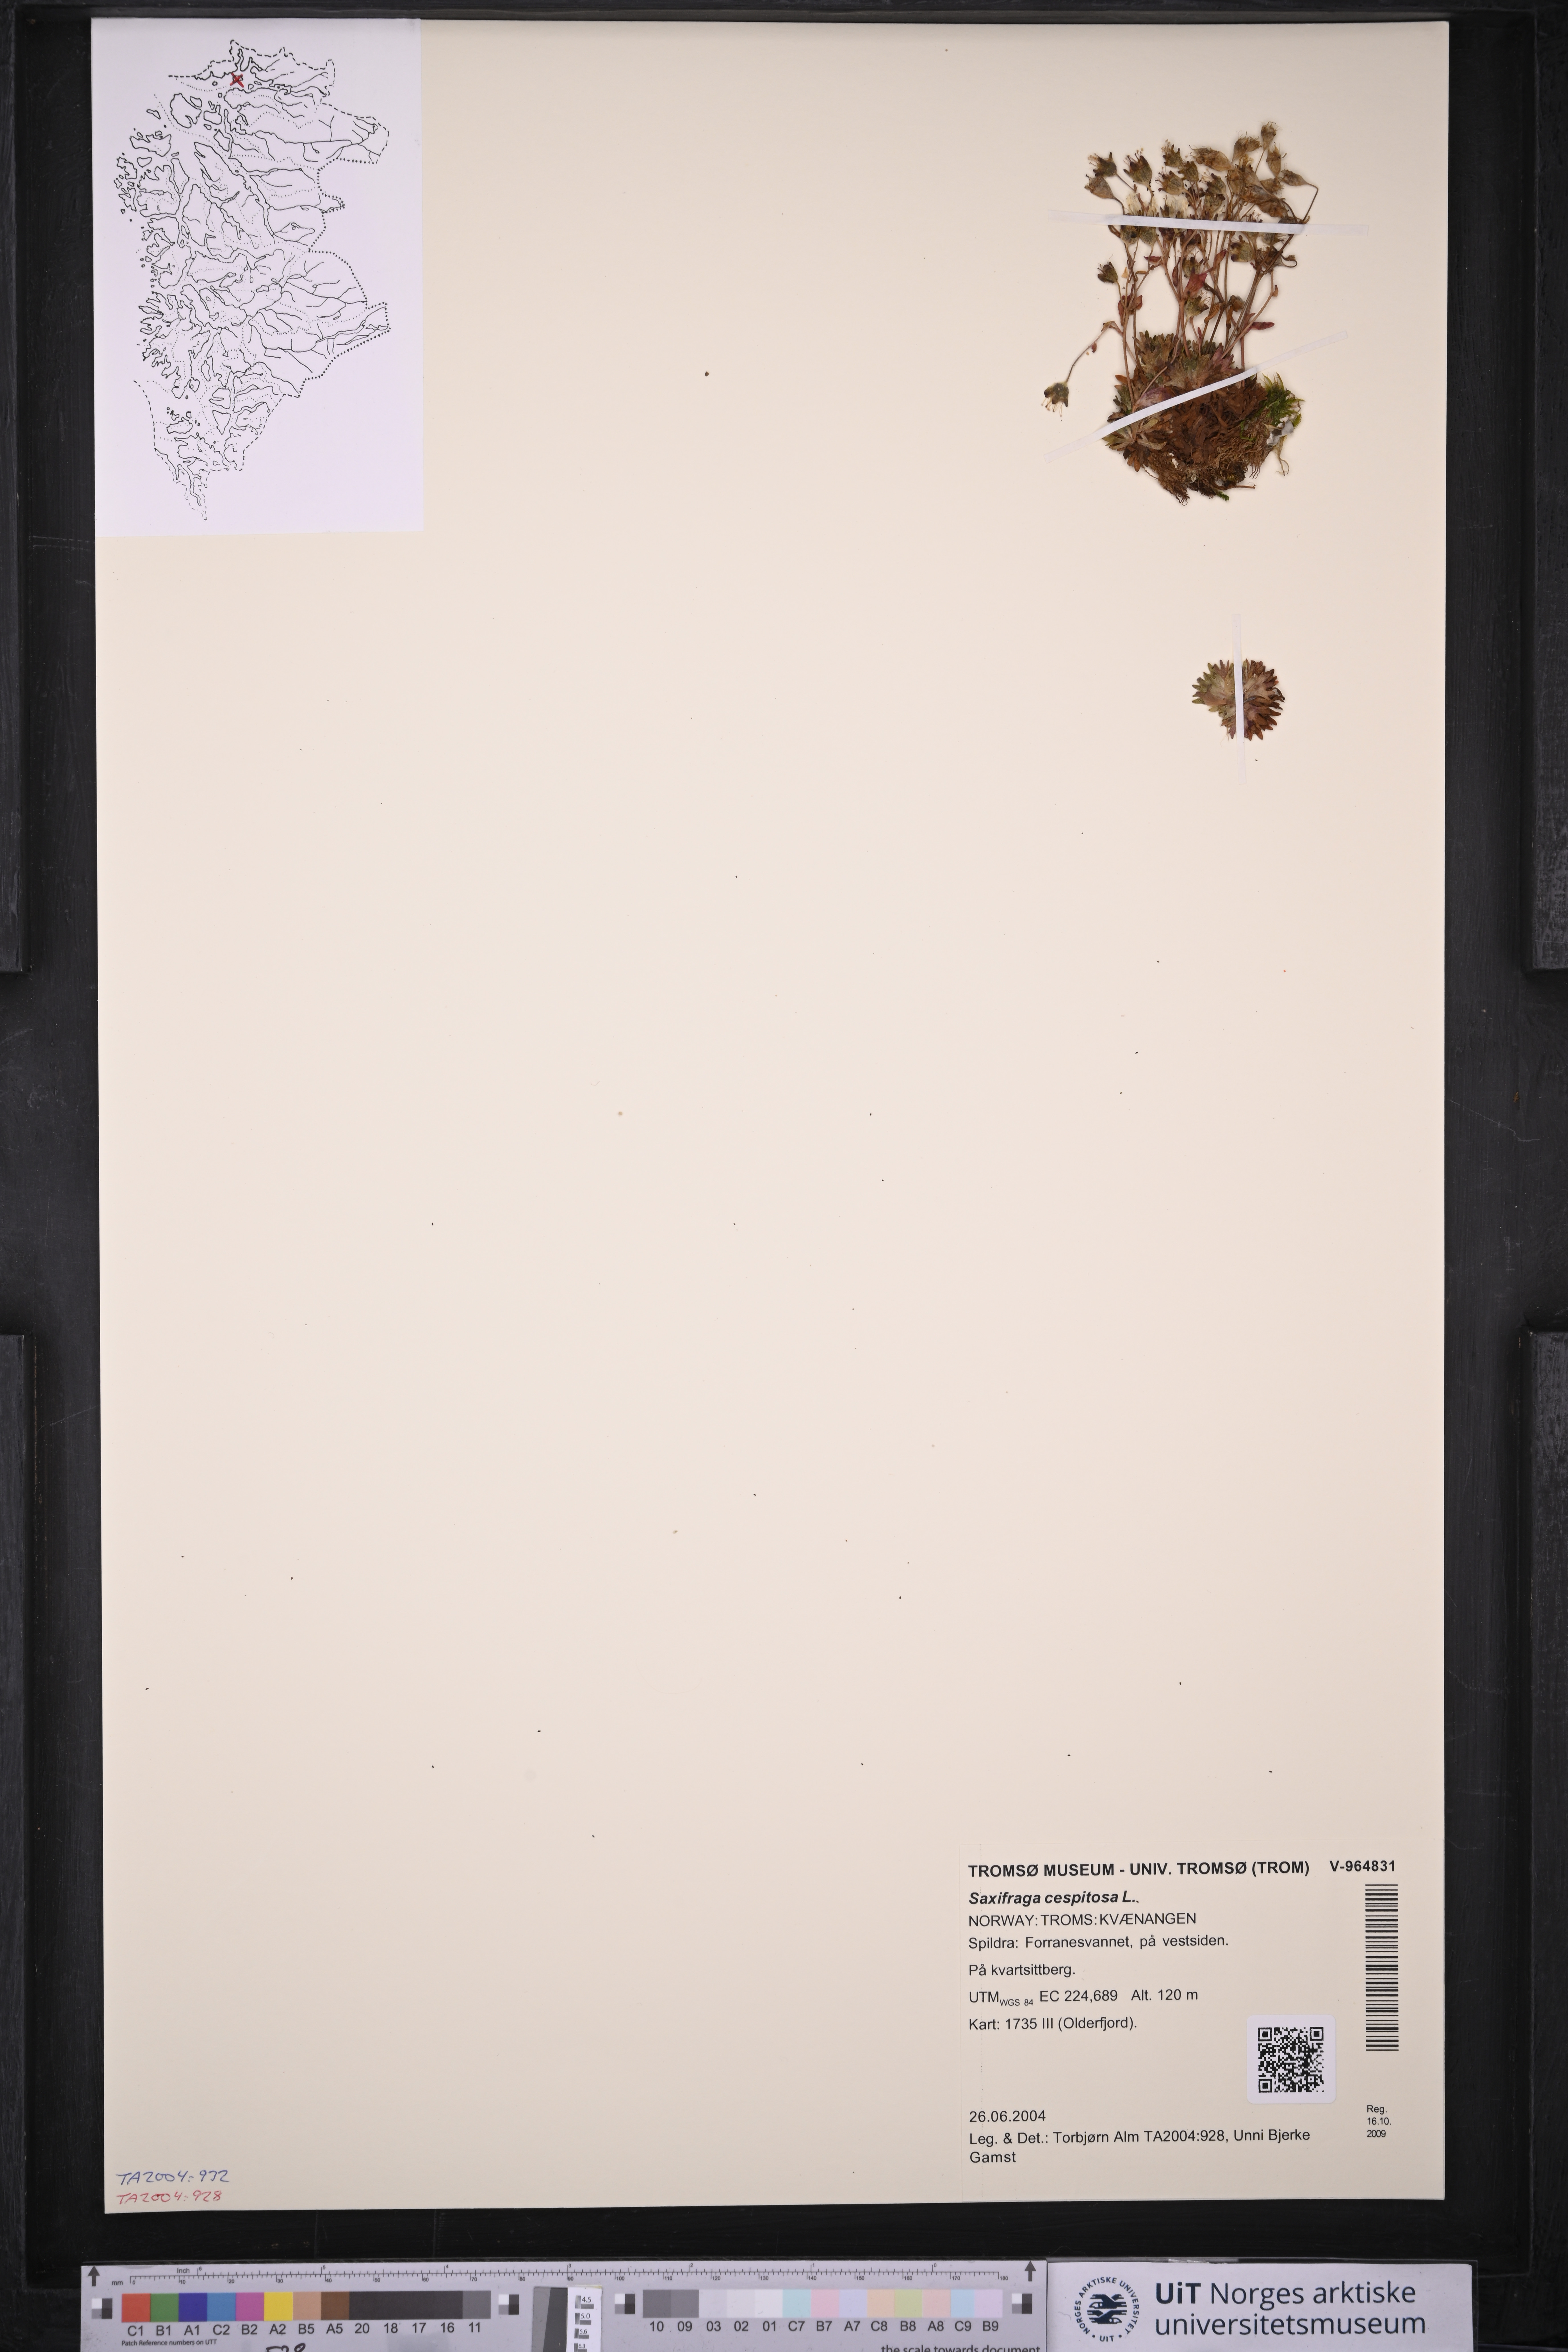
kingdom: Plantae
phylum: Tracheophyta
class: Magnoliopsida
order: Saxifragales
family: Saxifragaceae
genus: Saxifraga
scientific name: Saxifraga cespitosa
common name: Tufted saxifrage
